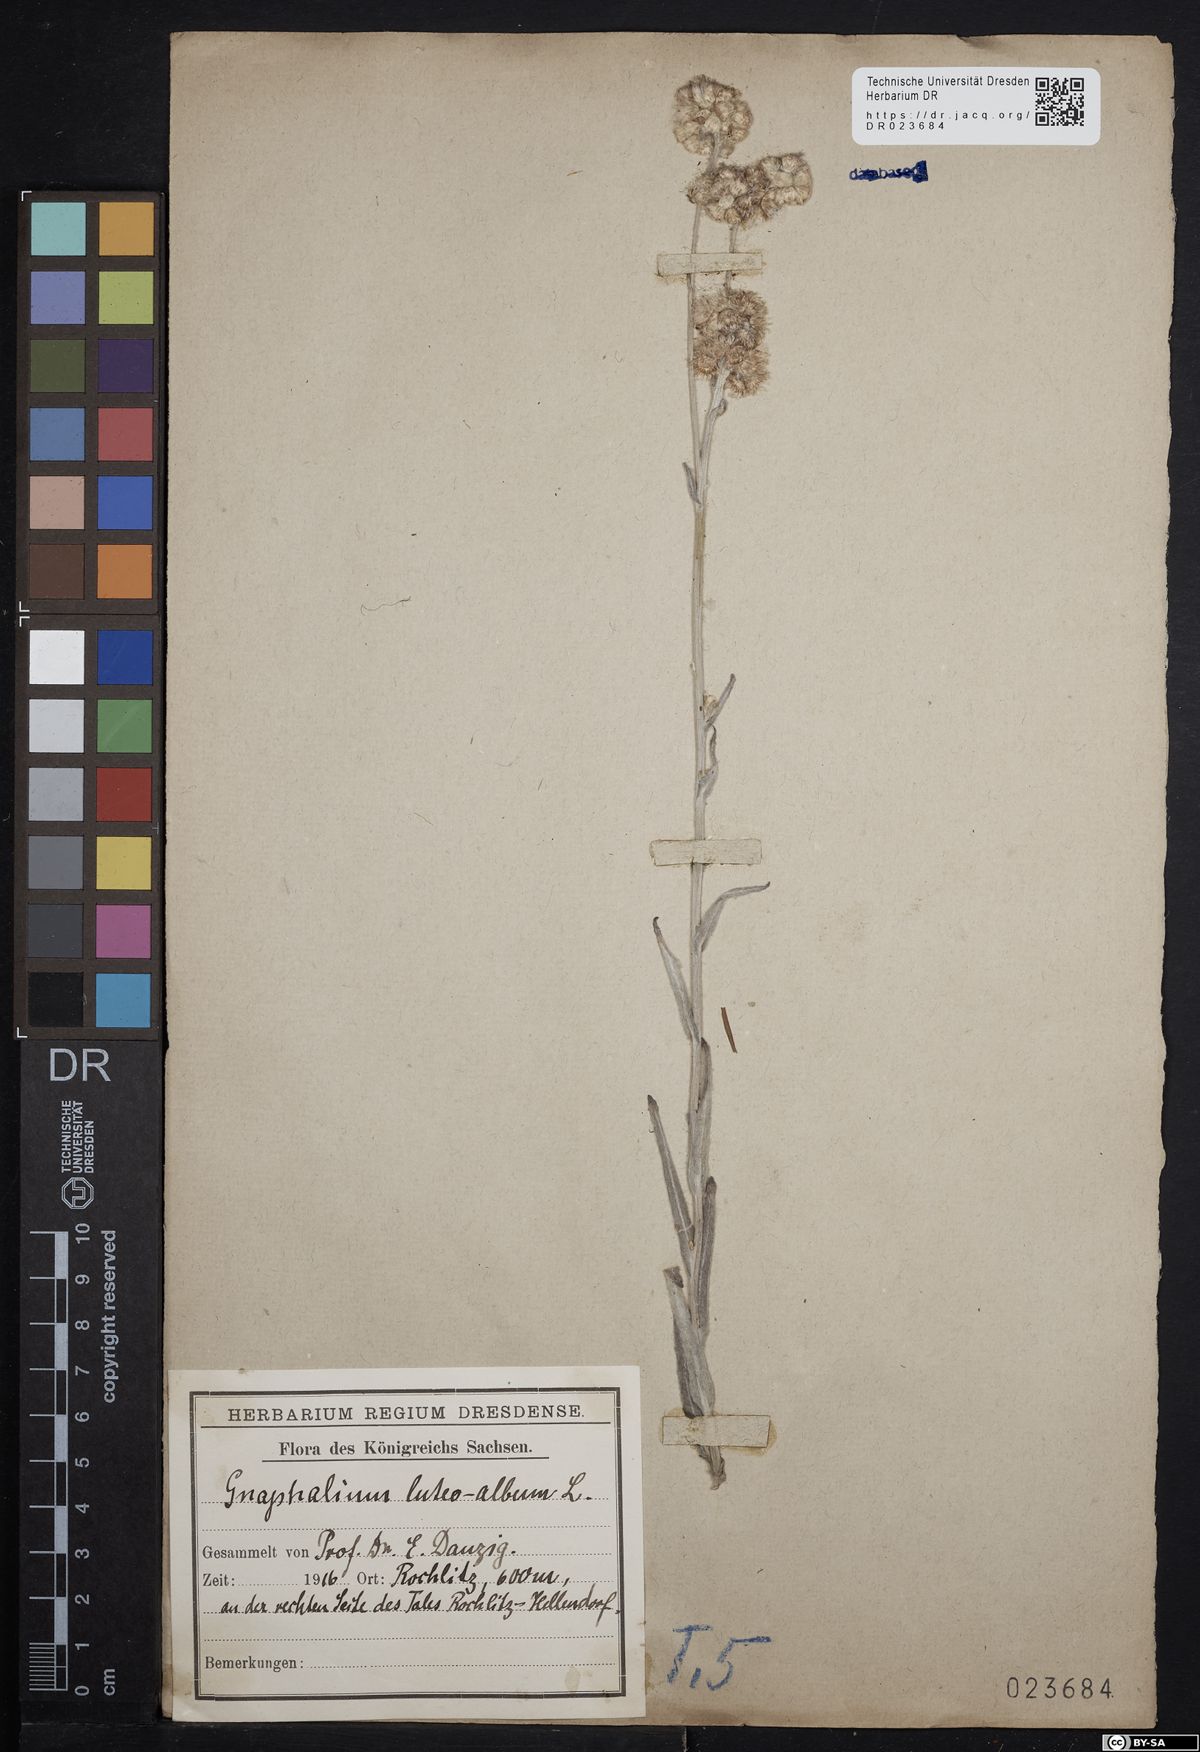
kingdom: Plantae
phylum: Tracheophyta
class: Magnoliopsida
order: Asterales
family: Asteraceae
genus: Helichrysum
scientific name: Helichrysum luteoalbum
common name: Daisy
